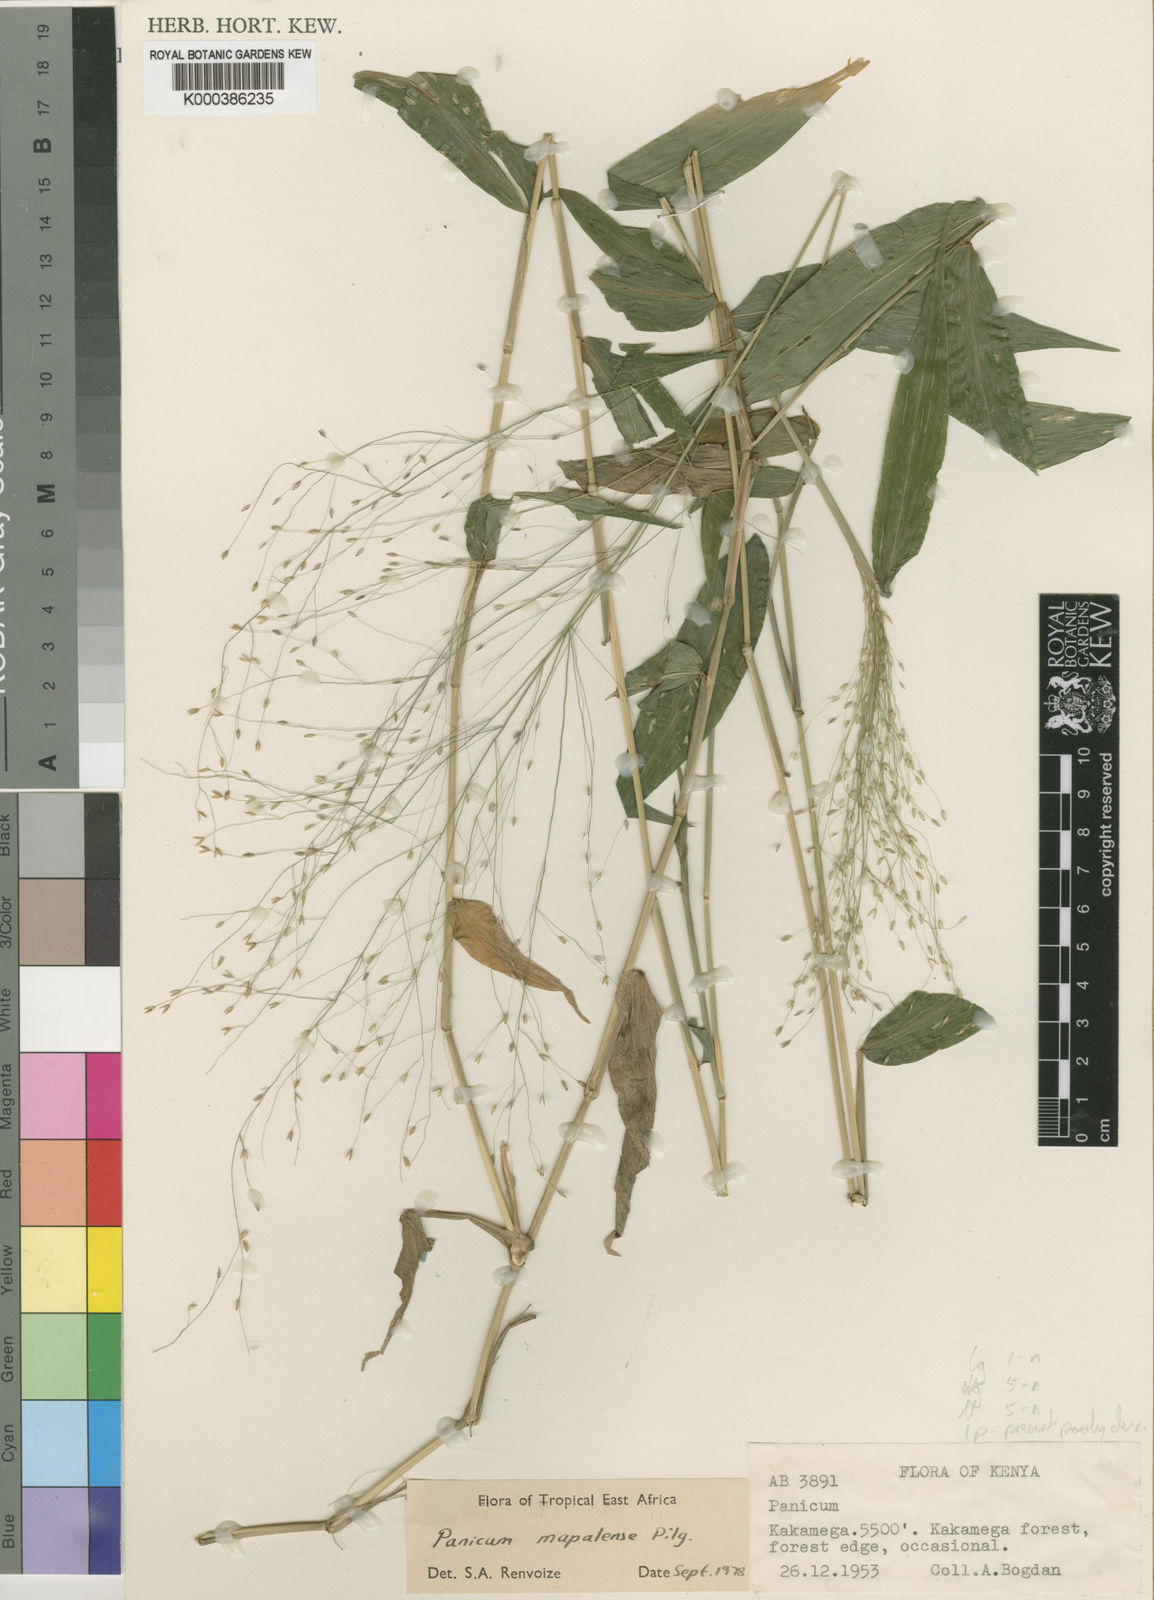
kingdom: Plantae
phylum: Tracheophyta
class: Liliopsida
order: Poales
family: Poaceae
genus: Panicum
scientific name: Panicum mapalense
